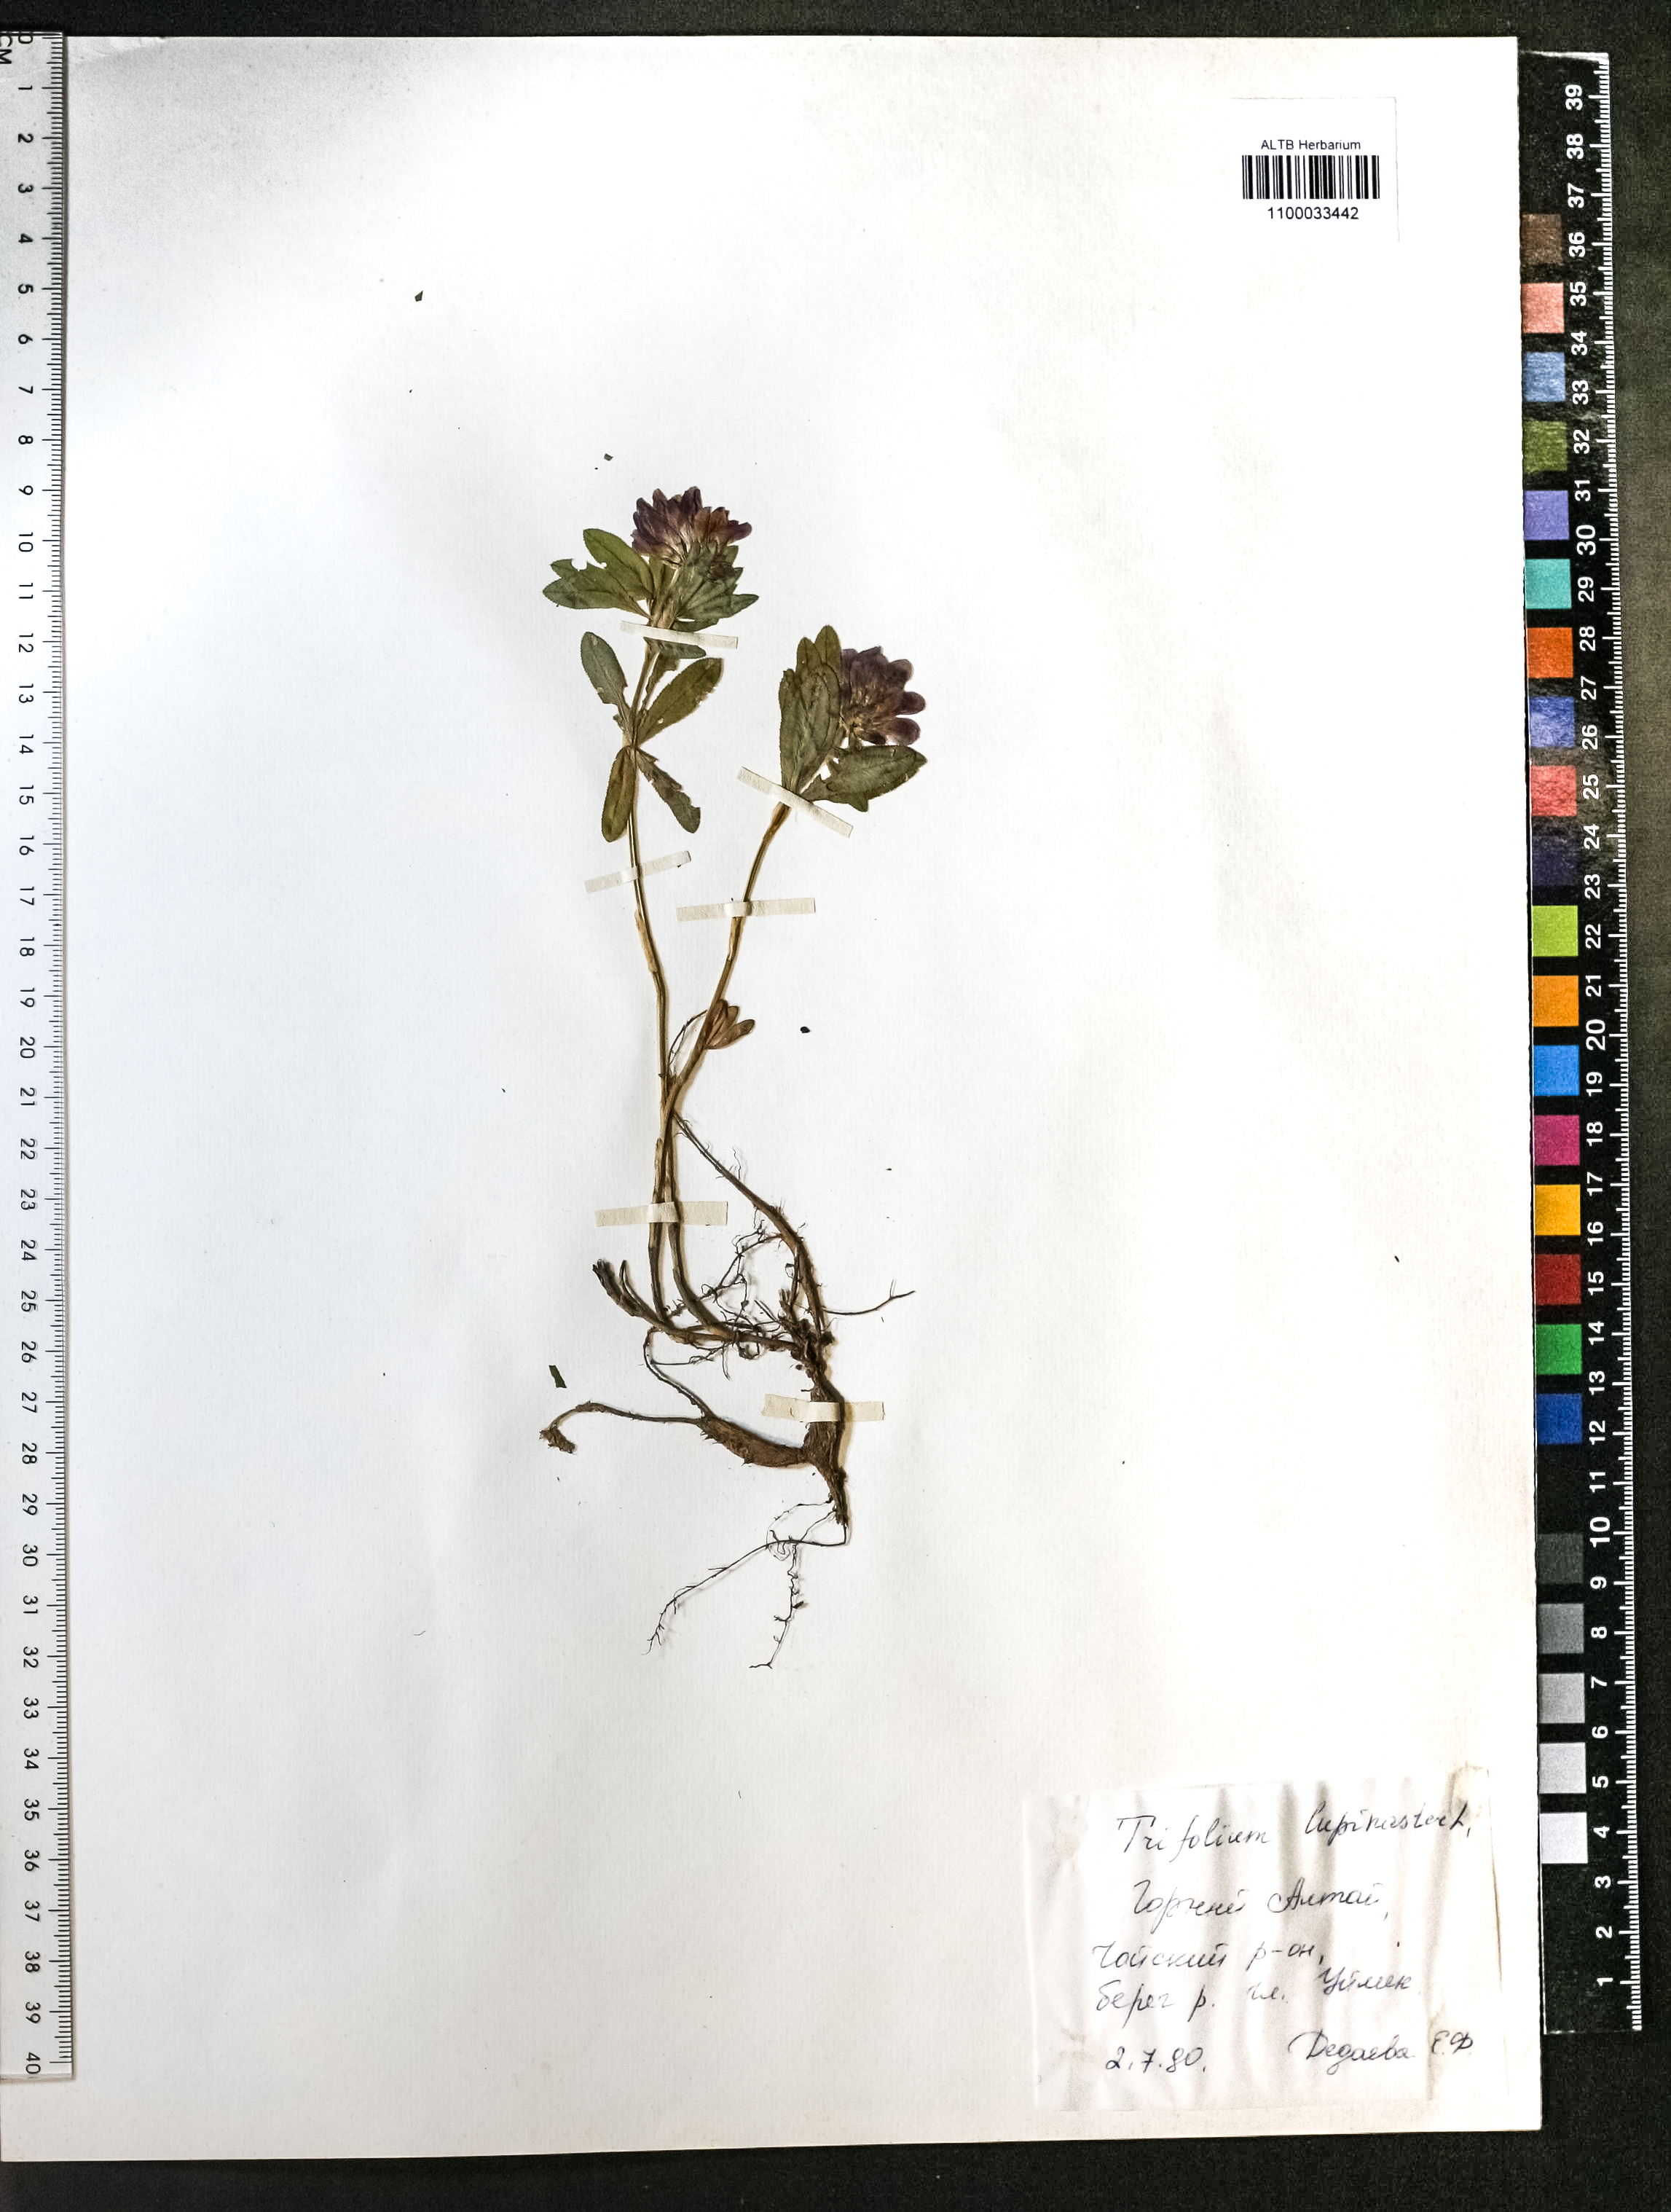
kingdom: Plantae
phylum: Tracheophyta
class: Magnoliopsida
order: Fabales
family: Fabaceae
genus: Trifolium
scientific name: Trifolium lupinaster
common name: Lupine clover
